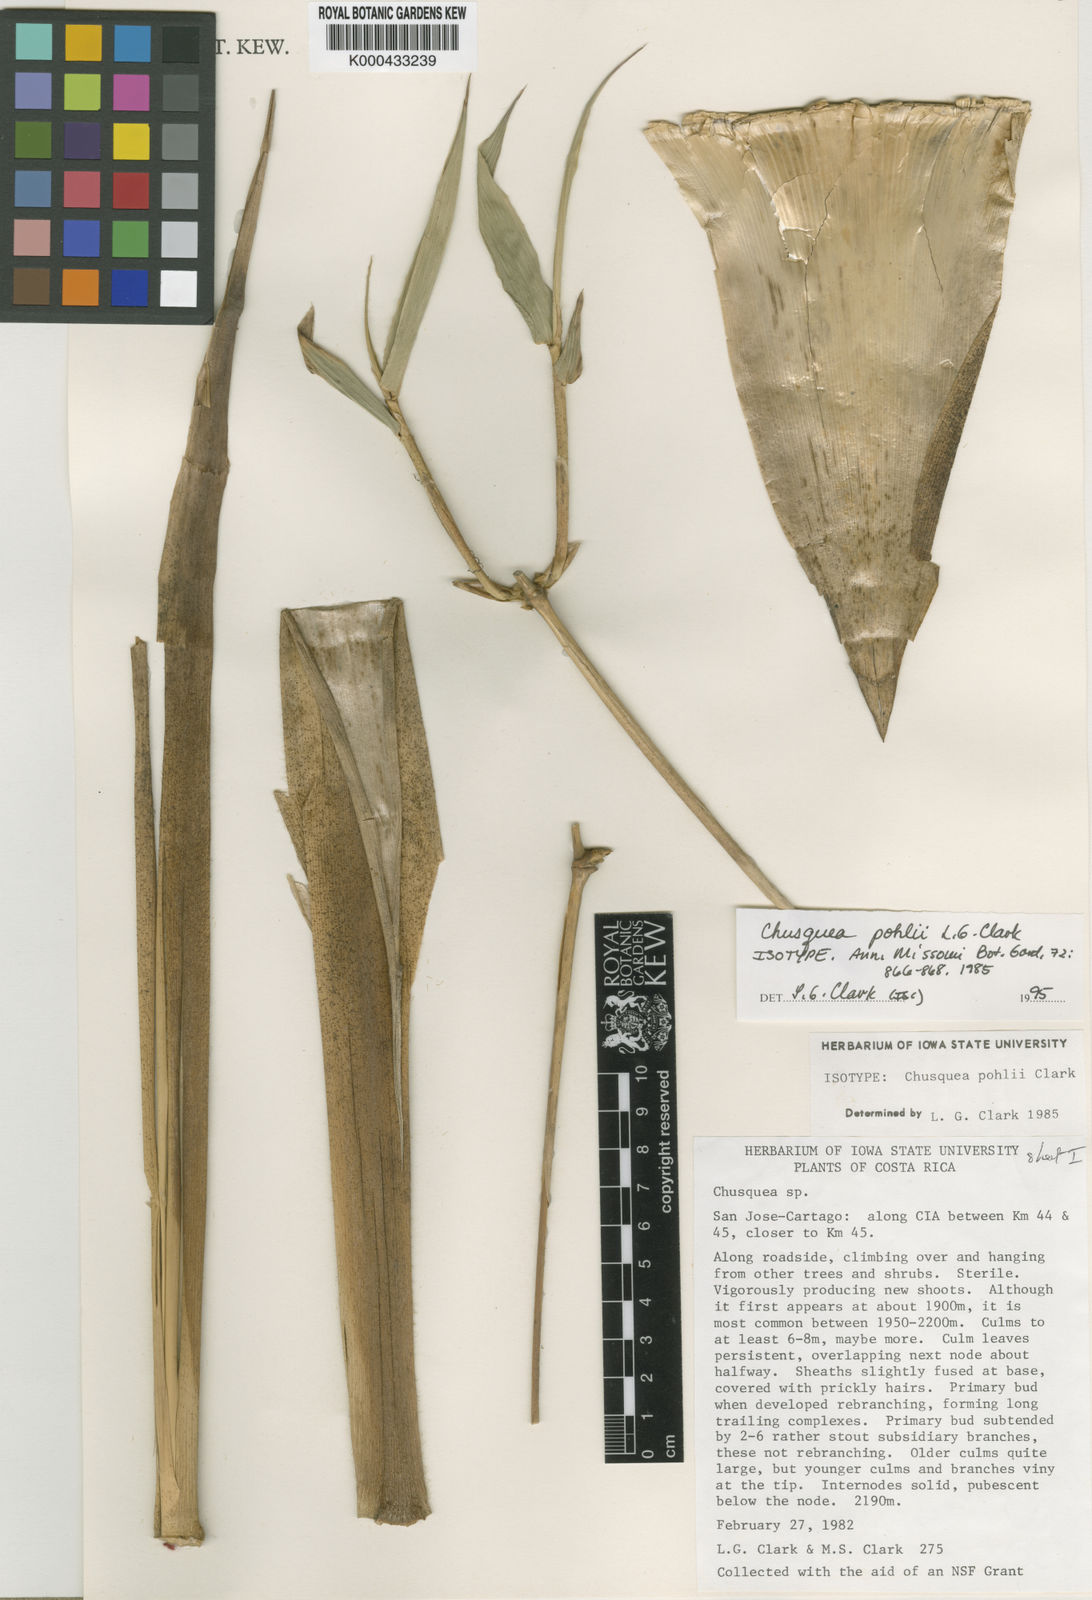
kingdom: Plantae
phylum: Tracheophyta
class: Liliopsida
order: Poales
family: Poaceae
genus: Chusquea
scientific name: Chusquea pohlii
